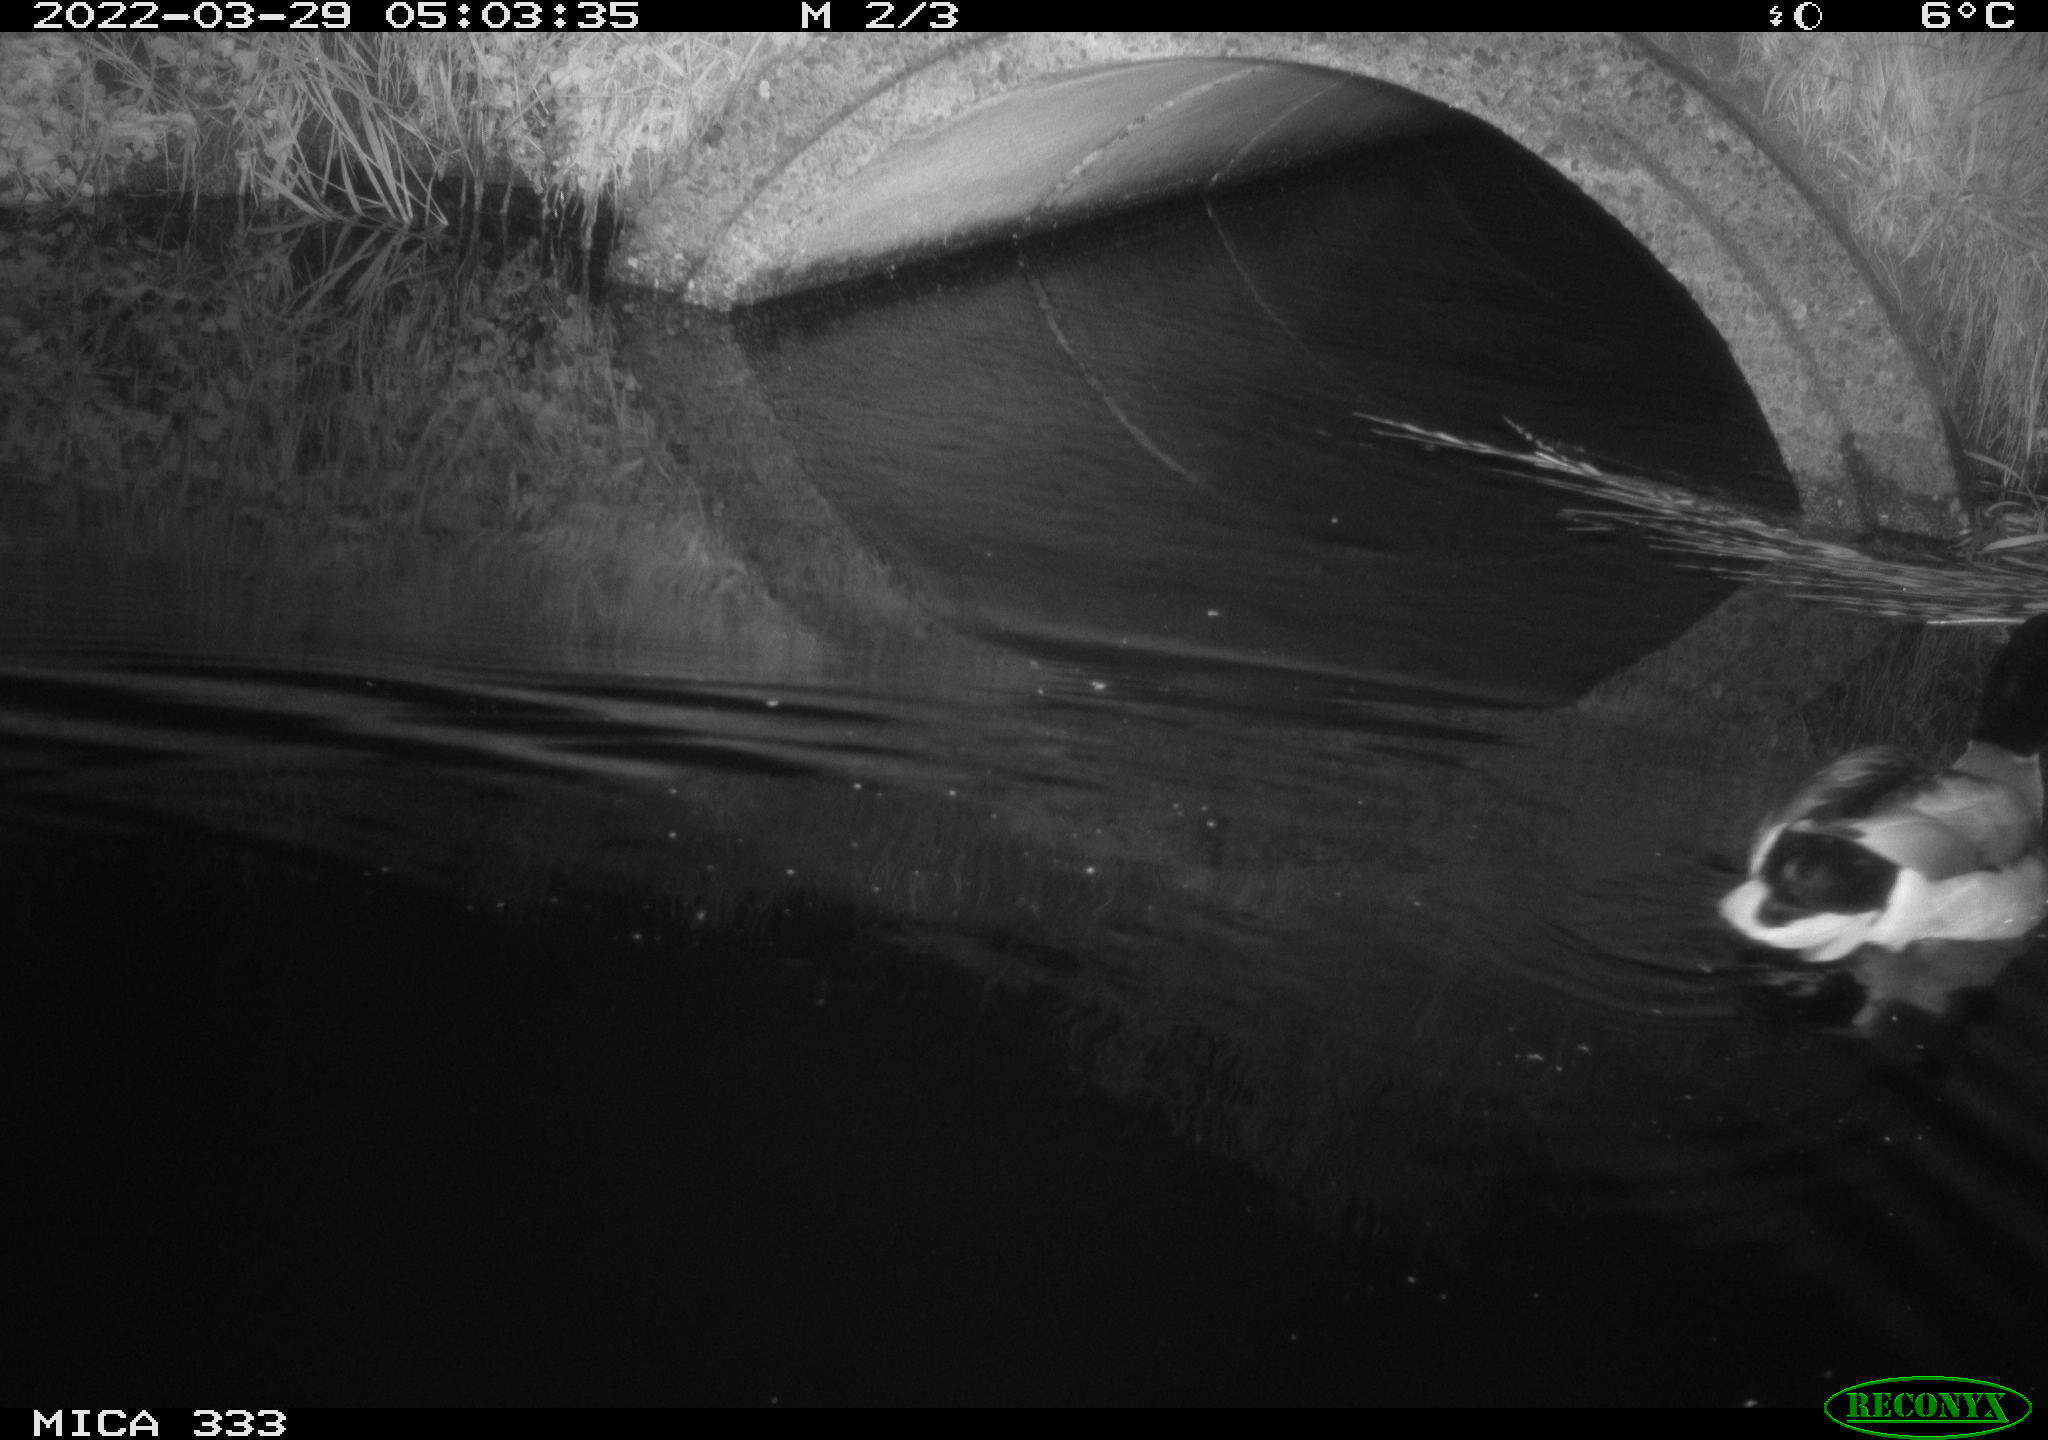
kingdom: Animalia
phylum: Chordata
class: Aves
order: Anseriformes
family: Anatidae
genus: Anas
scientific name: Anas platyrhynchos
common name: Mallard
